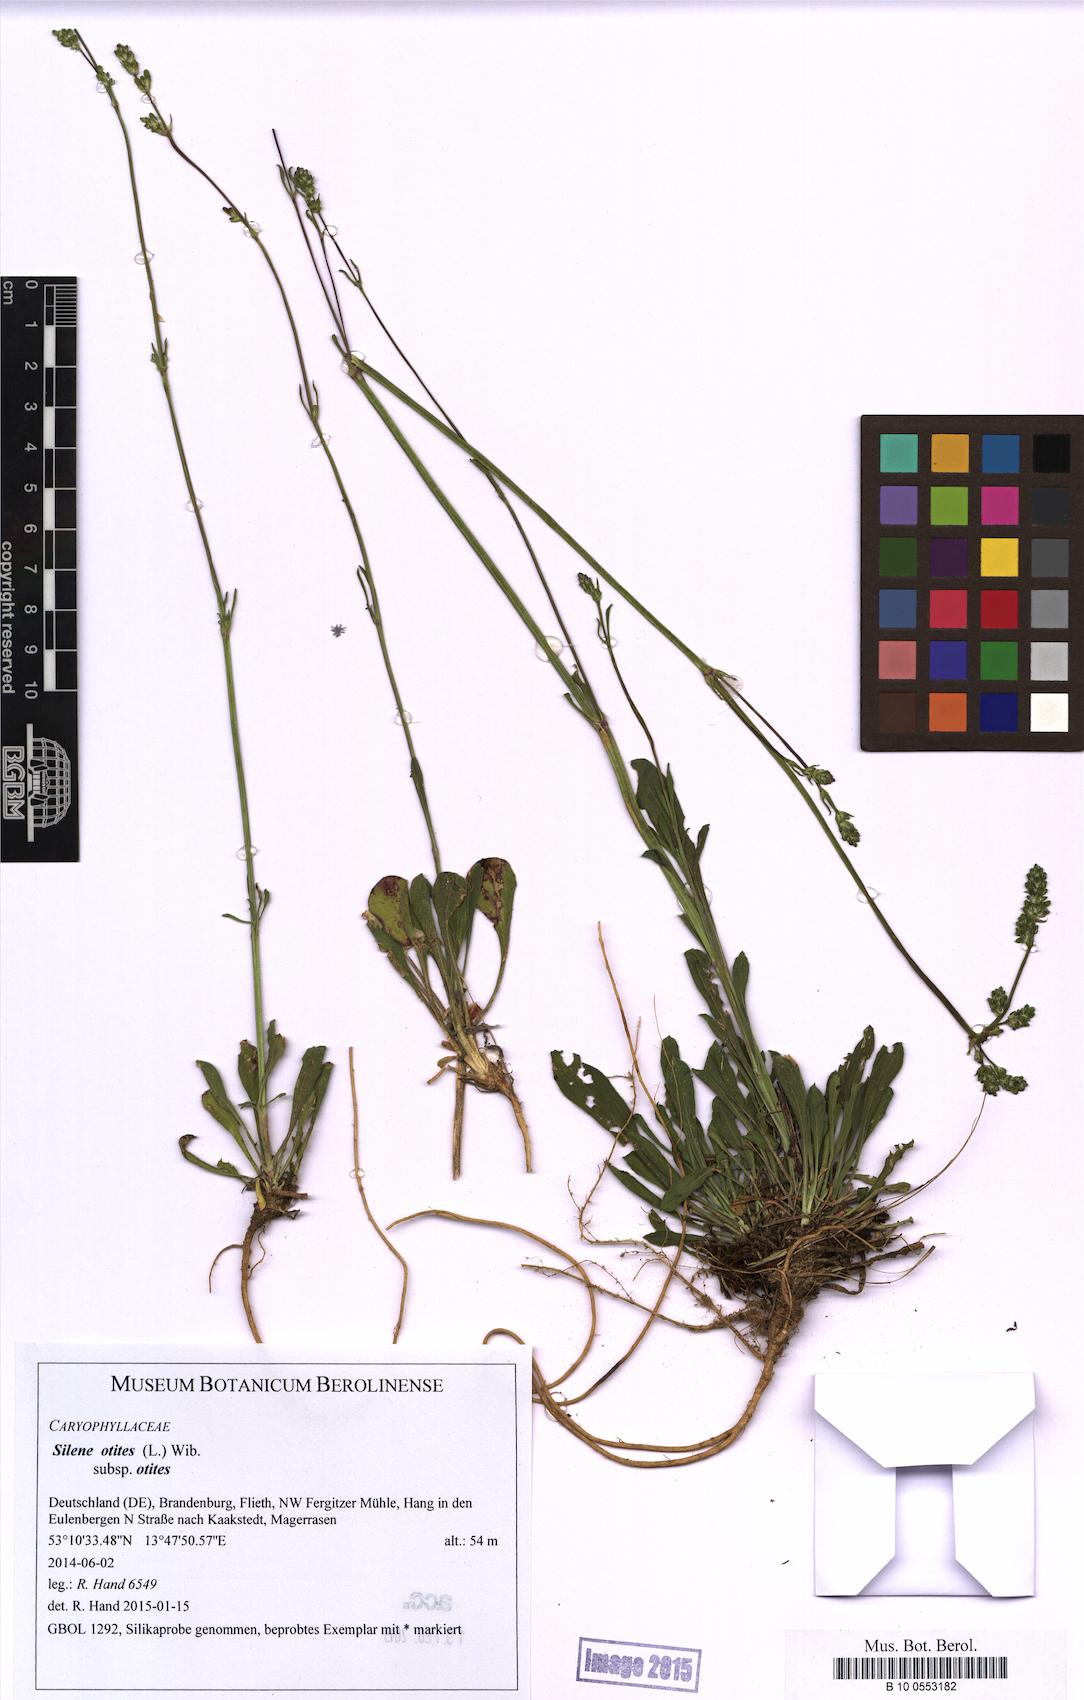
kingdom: Plantae
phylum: Tracheophyta
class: Magnoliopsida
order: Caryophyllales
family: Caryophyllaceae
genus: Silene
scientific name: Silene otites
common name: Spanish catchfly
